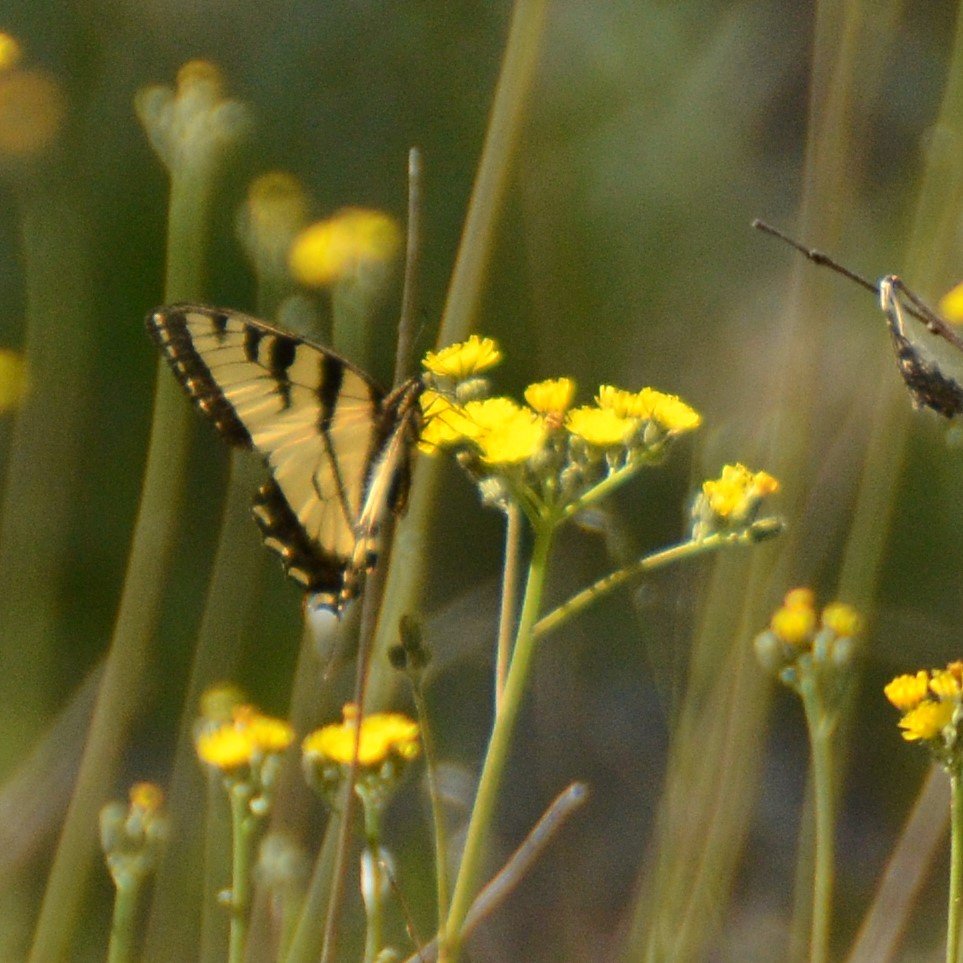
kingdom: Animalia
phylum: Arthropoda
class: Insecta
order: Lepidoptera
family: Papilionidae
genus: Pterourus
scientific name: Pterourus canadensis
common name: Canadian Tiger Swallowtail
